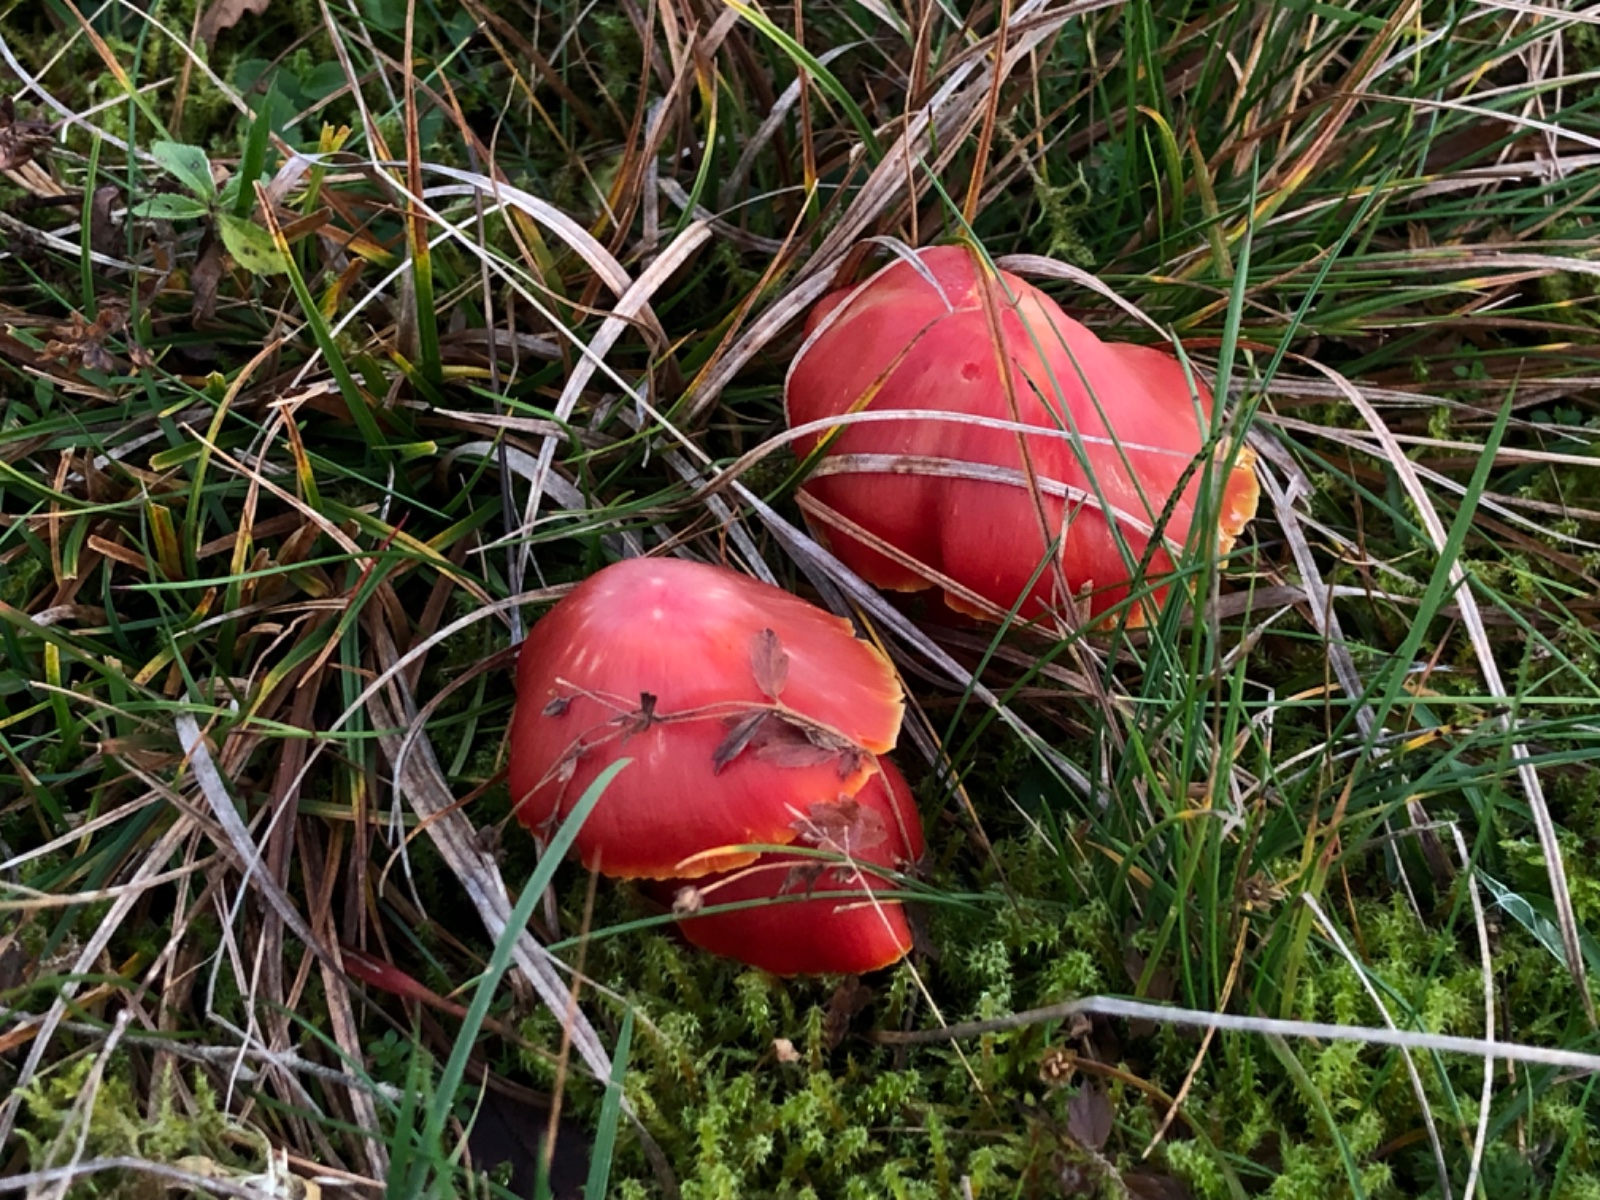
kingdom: Fungi
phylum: Basidiomycota
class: Agaricomycetes
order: Agaricales
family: Hygrophoraceae
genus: Hygrocybe
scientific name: Hygrocybe splendidissima
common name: knaldrød vokshat
